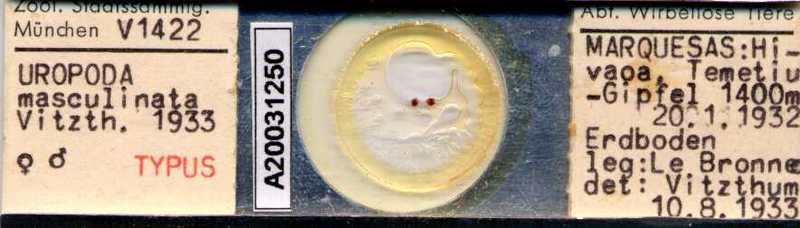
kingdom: Animalia
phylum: Arthropoda
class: Arachnida
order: Mesostigmata
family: Nenteriidae
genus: Austrodinychus
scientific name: Austrodinychus masculinatus
